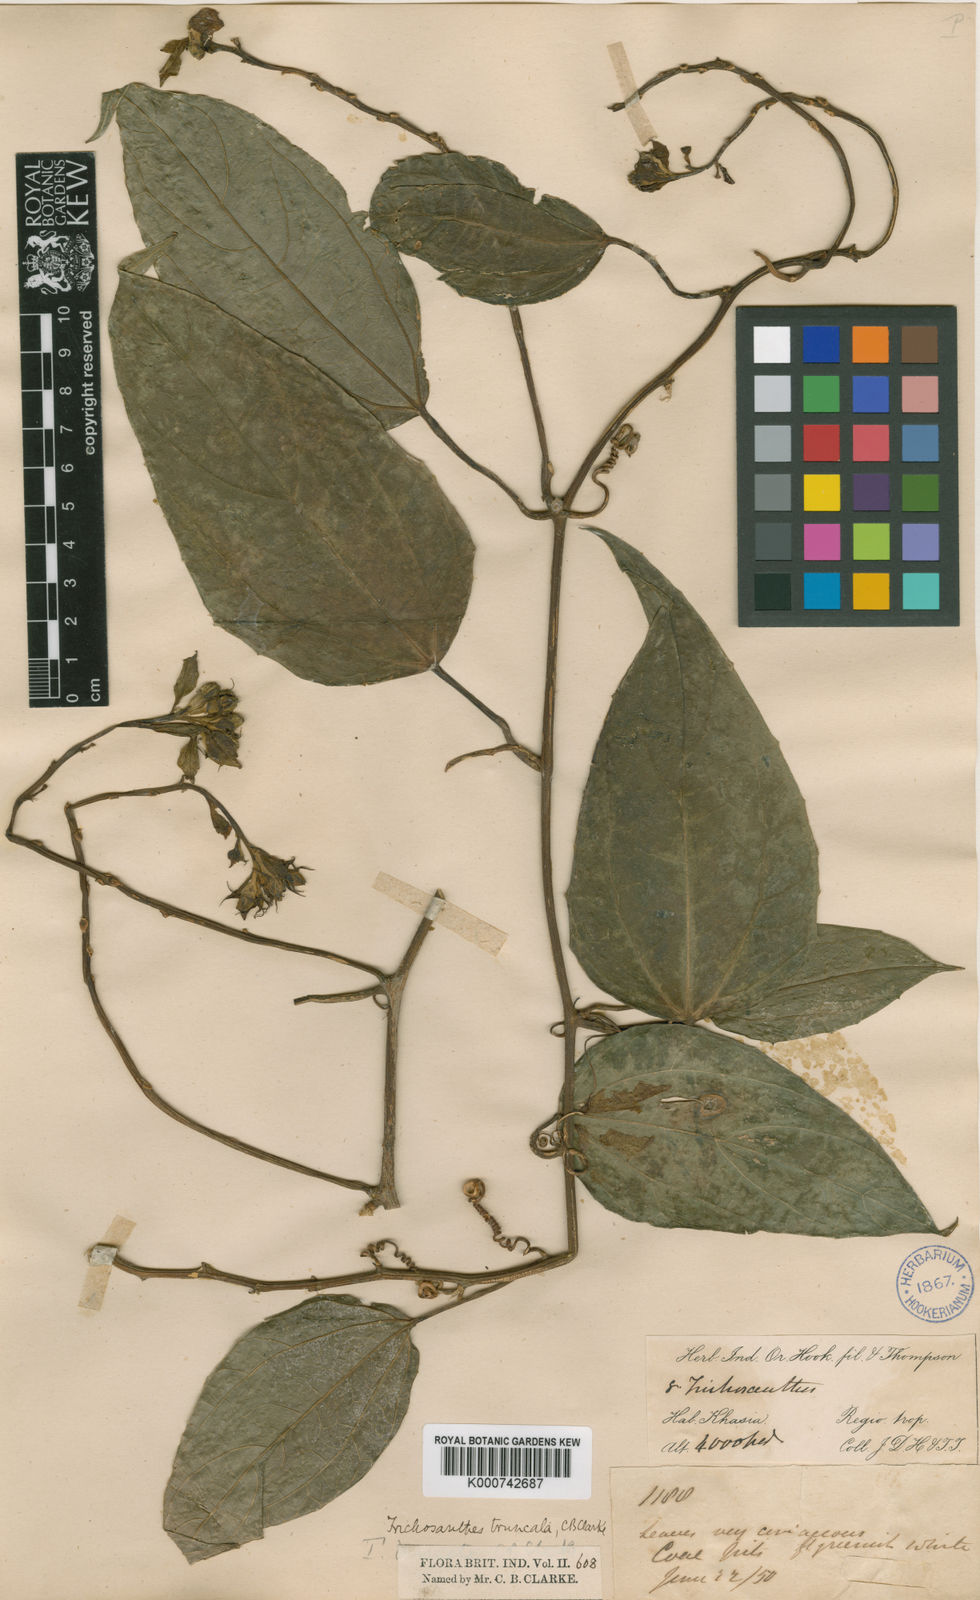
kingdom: Plantae
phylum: Tracheophyta
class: Magnoliopsida
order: Cucurbitales
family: Cucurbitaceae
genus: Trichosanthes
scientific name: Trichosanthes truncata
